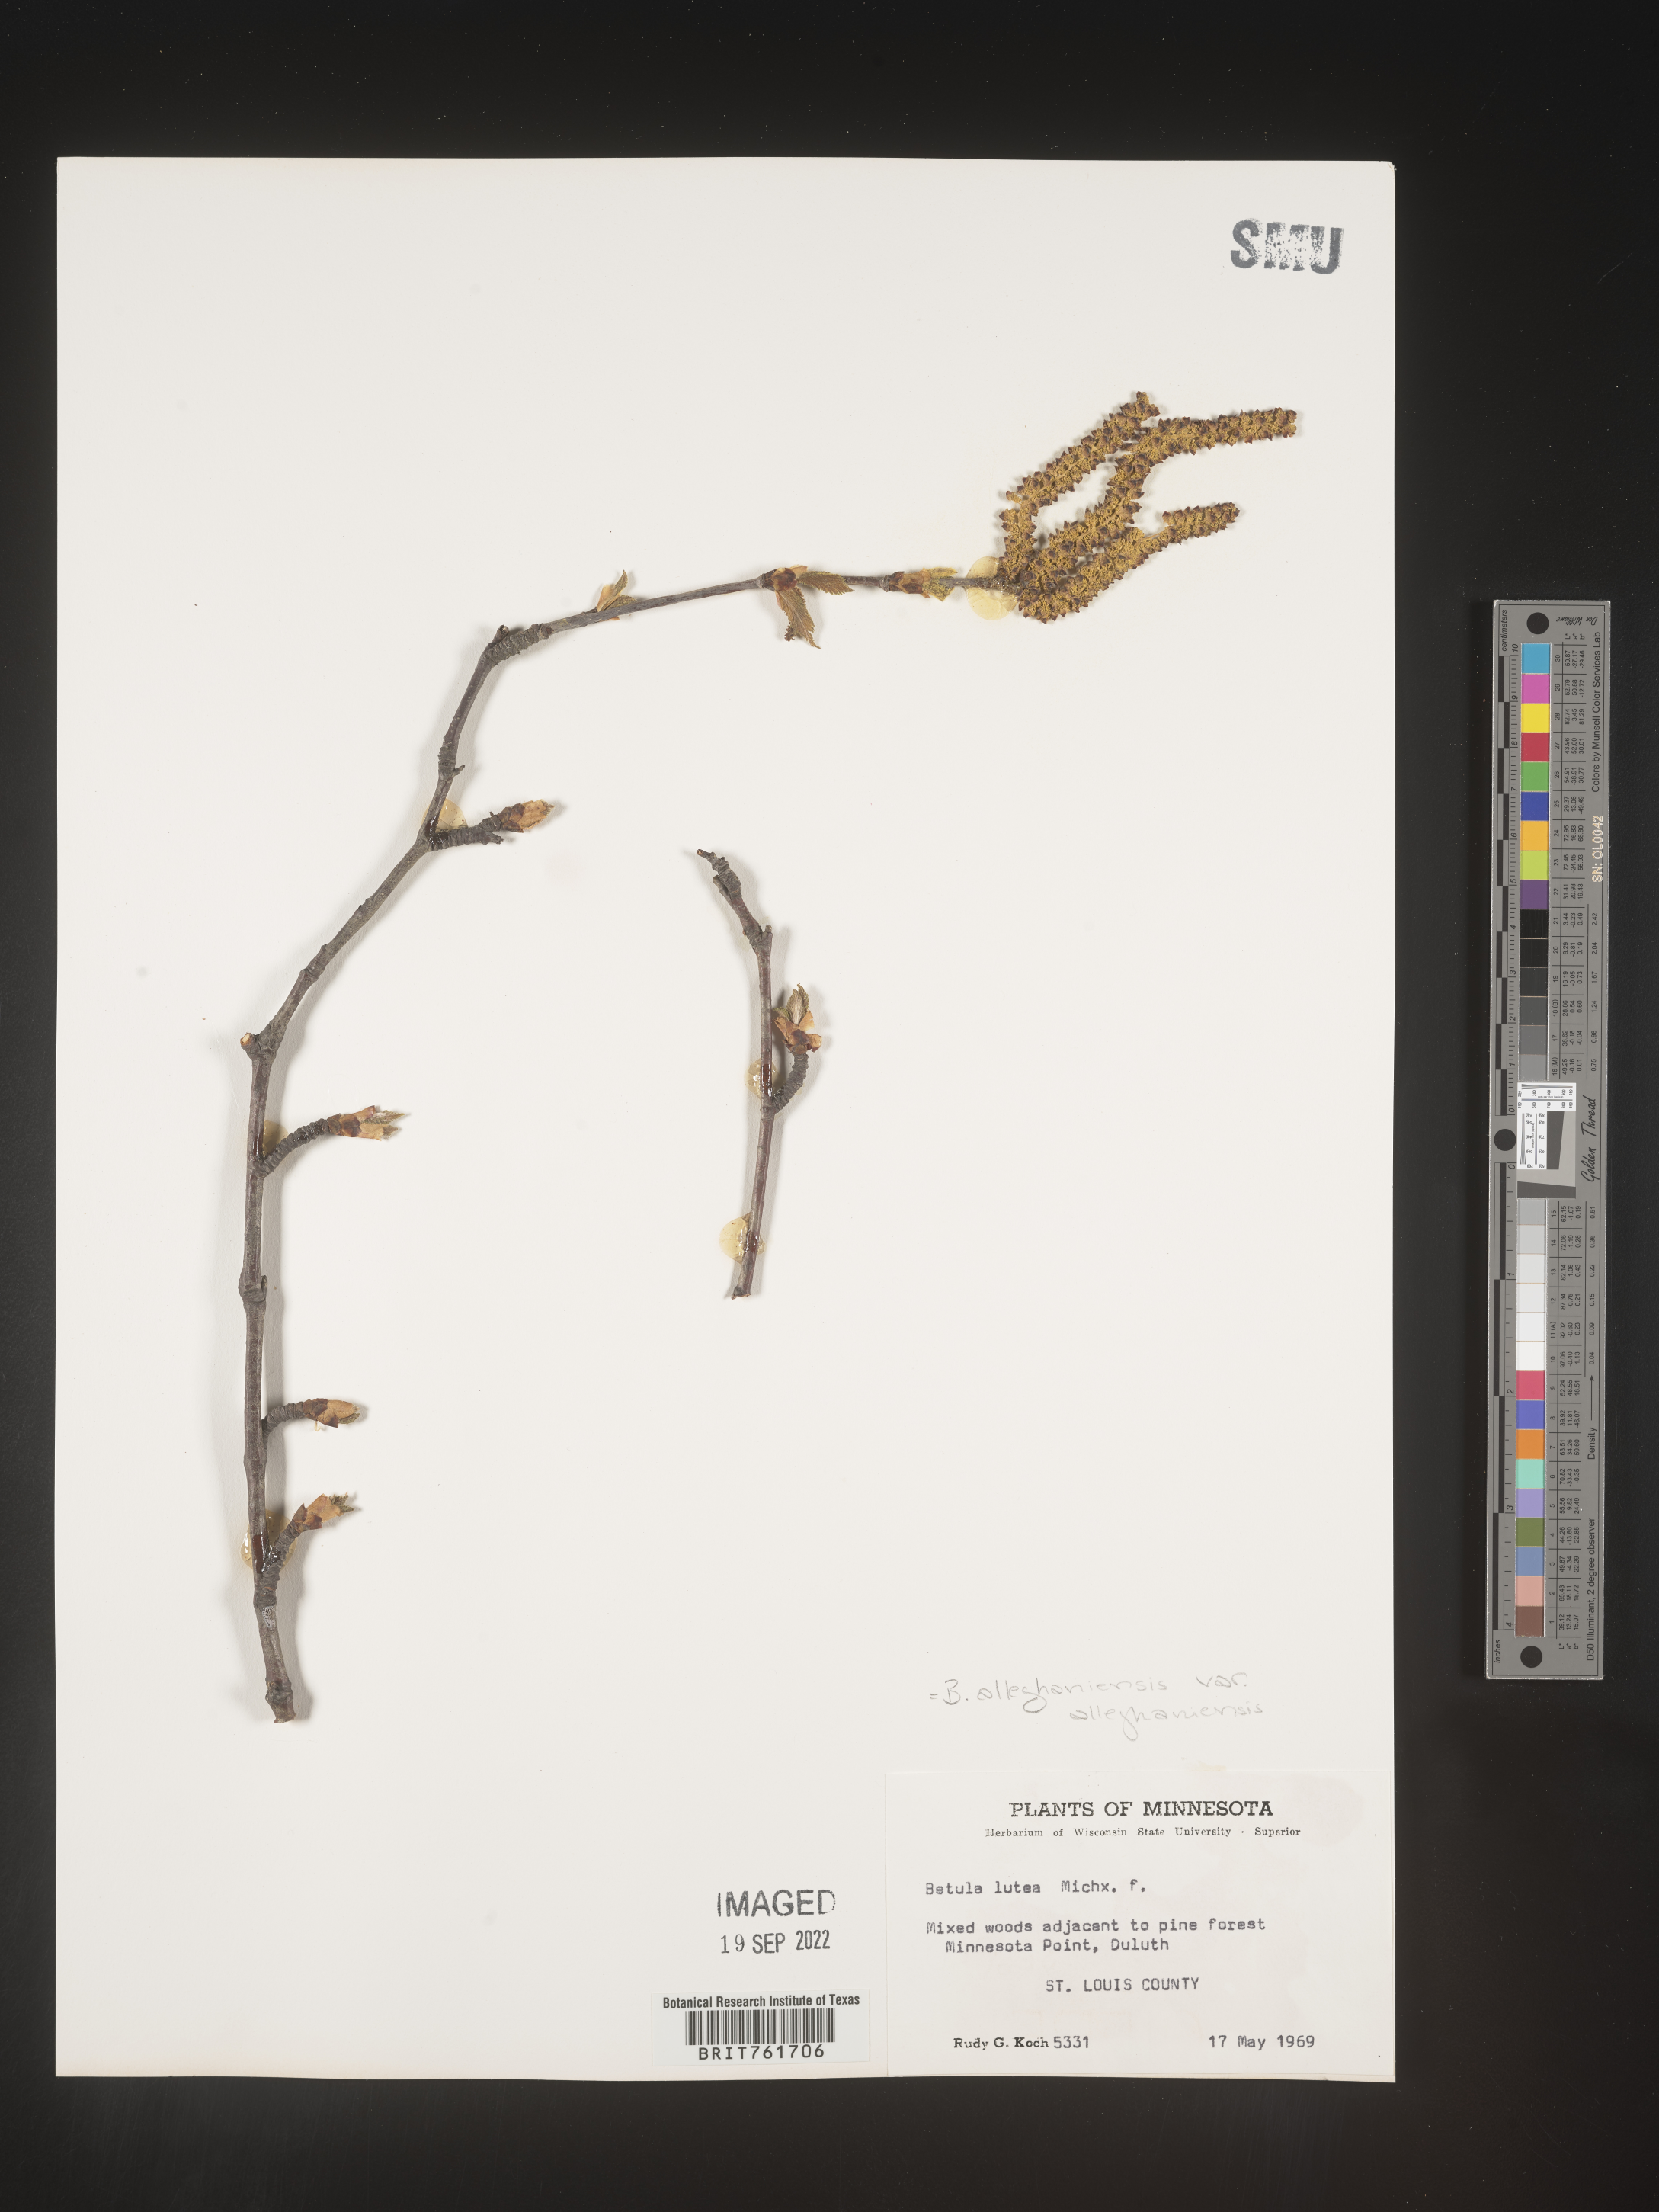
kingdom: Plantae
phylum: Tracheophyta
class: Magnoliopsida
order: Fagales
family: Betulaceae
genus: Betula
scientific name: Betula alleghaniensis
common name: Yellow birch
